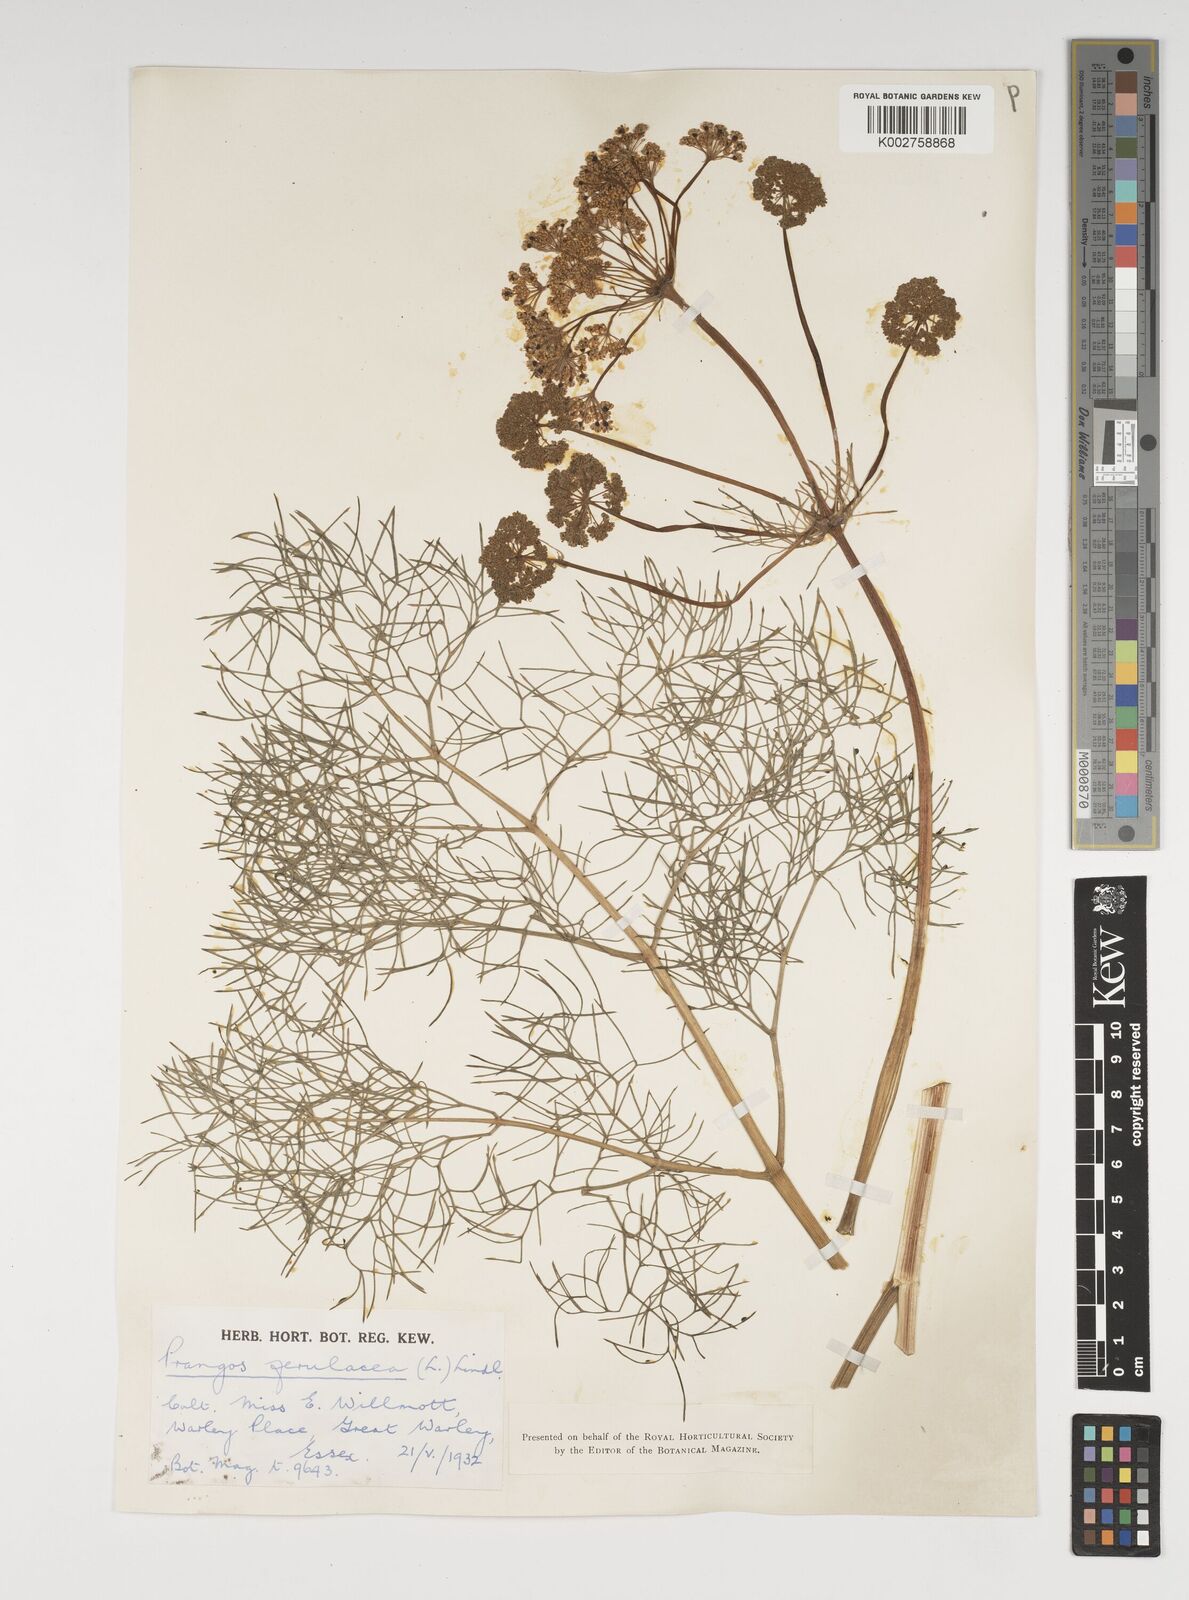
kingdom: Plantae
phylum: Tracheophyta
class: Magnoliopsida
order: Apiales
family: Apiaceae
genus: Prangos
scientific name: Prangos ferulacea
